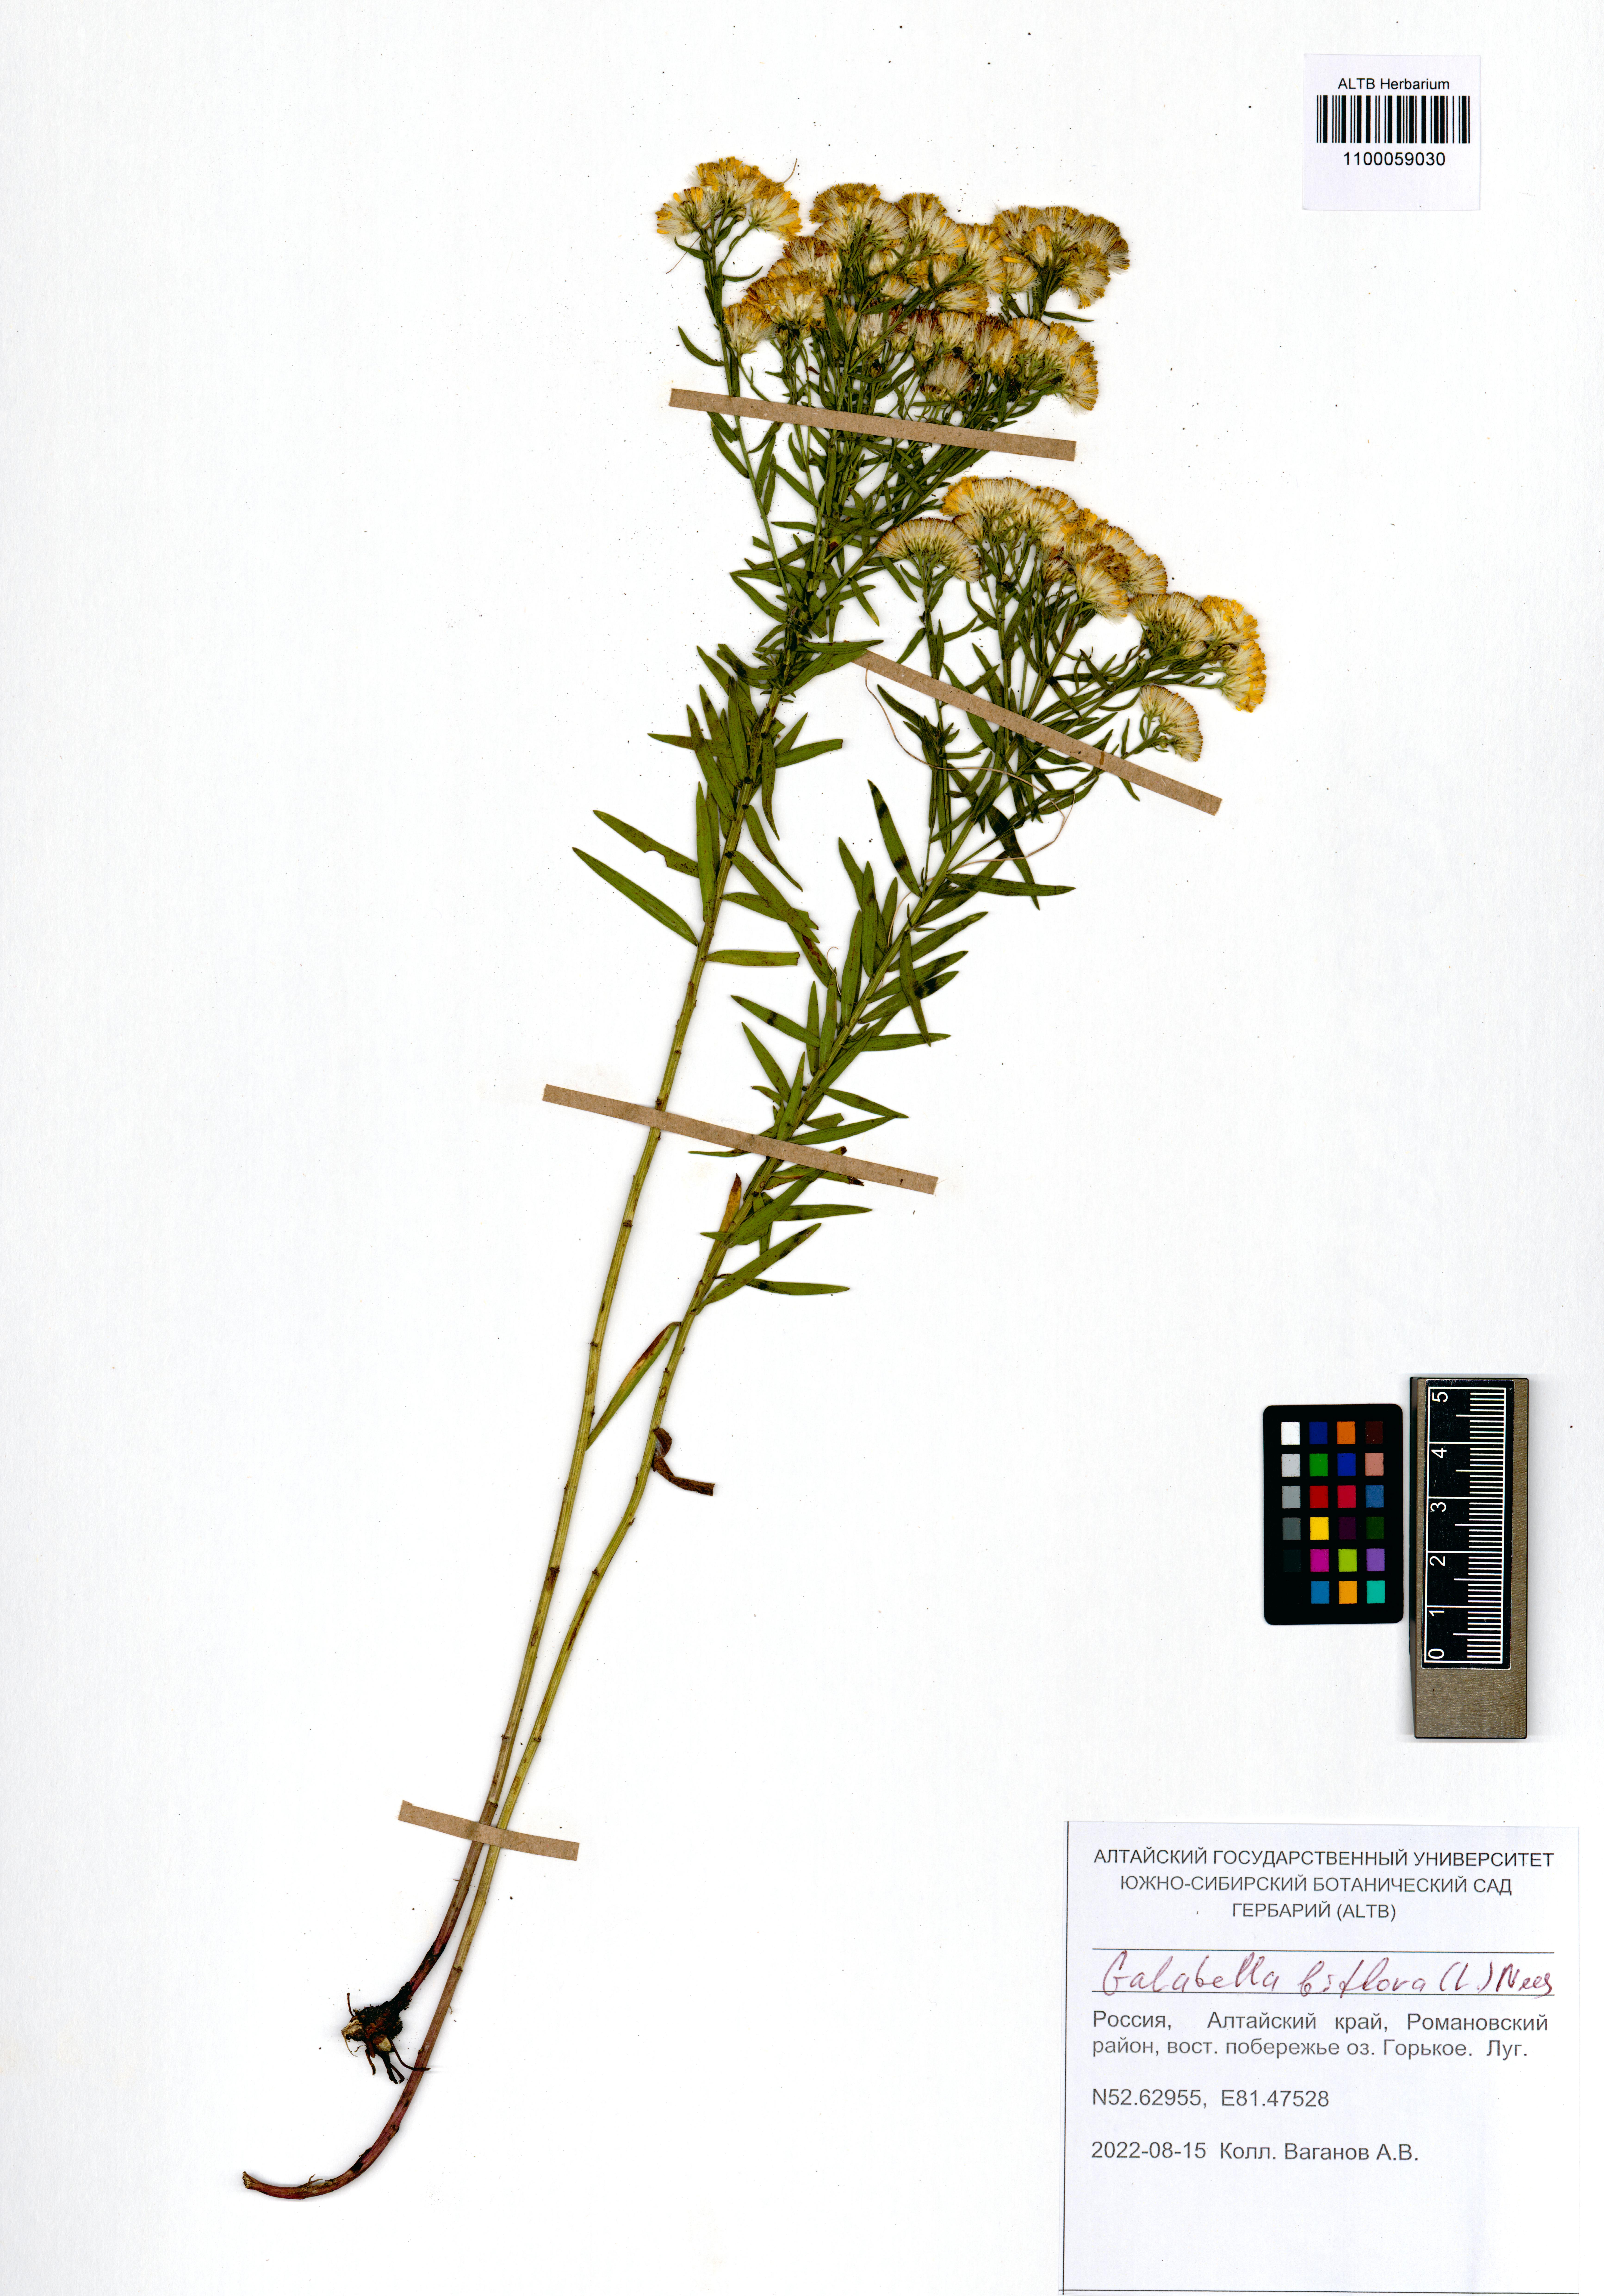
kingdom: Plantae
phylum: Tracheophyta
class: Magnoliopsida
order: Asterales
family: Asteraceae
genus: Galatella
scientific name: Galatella biflora
